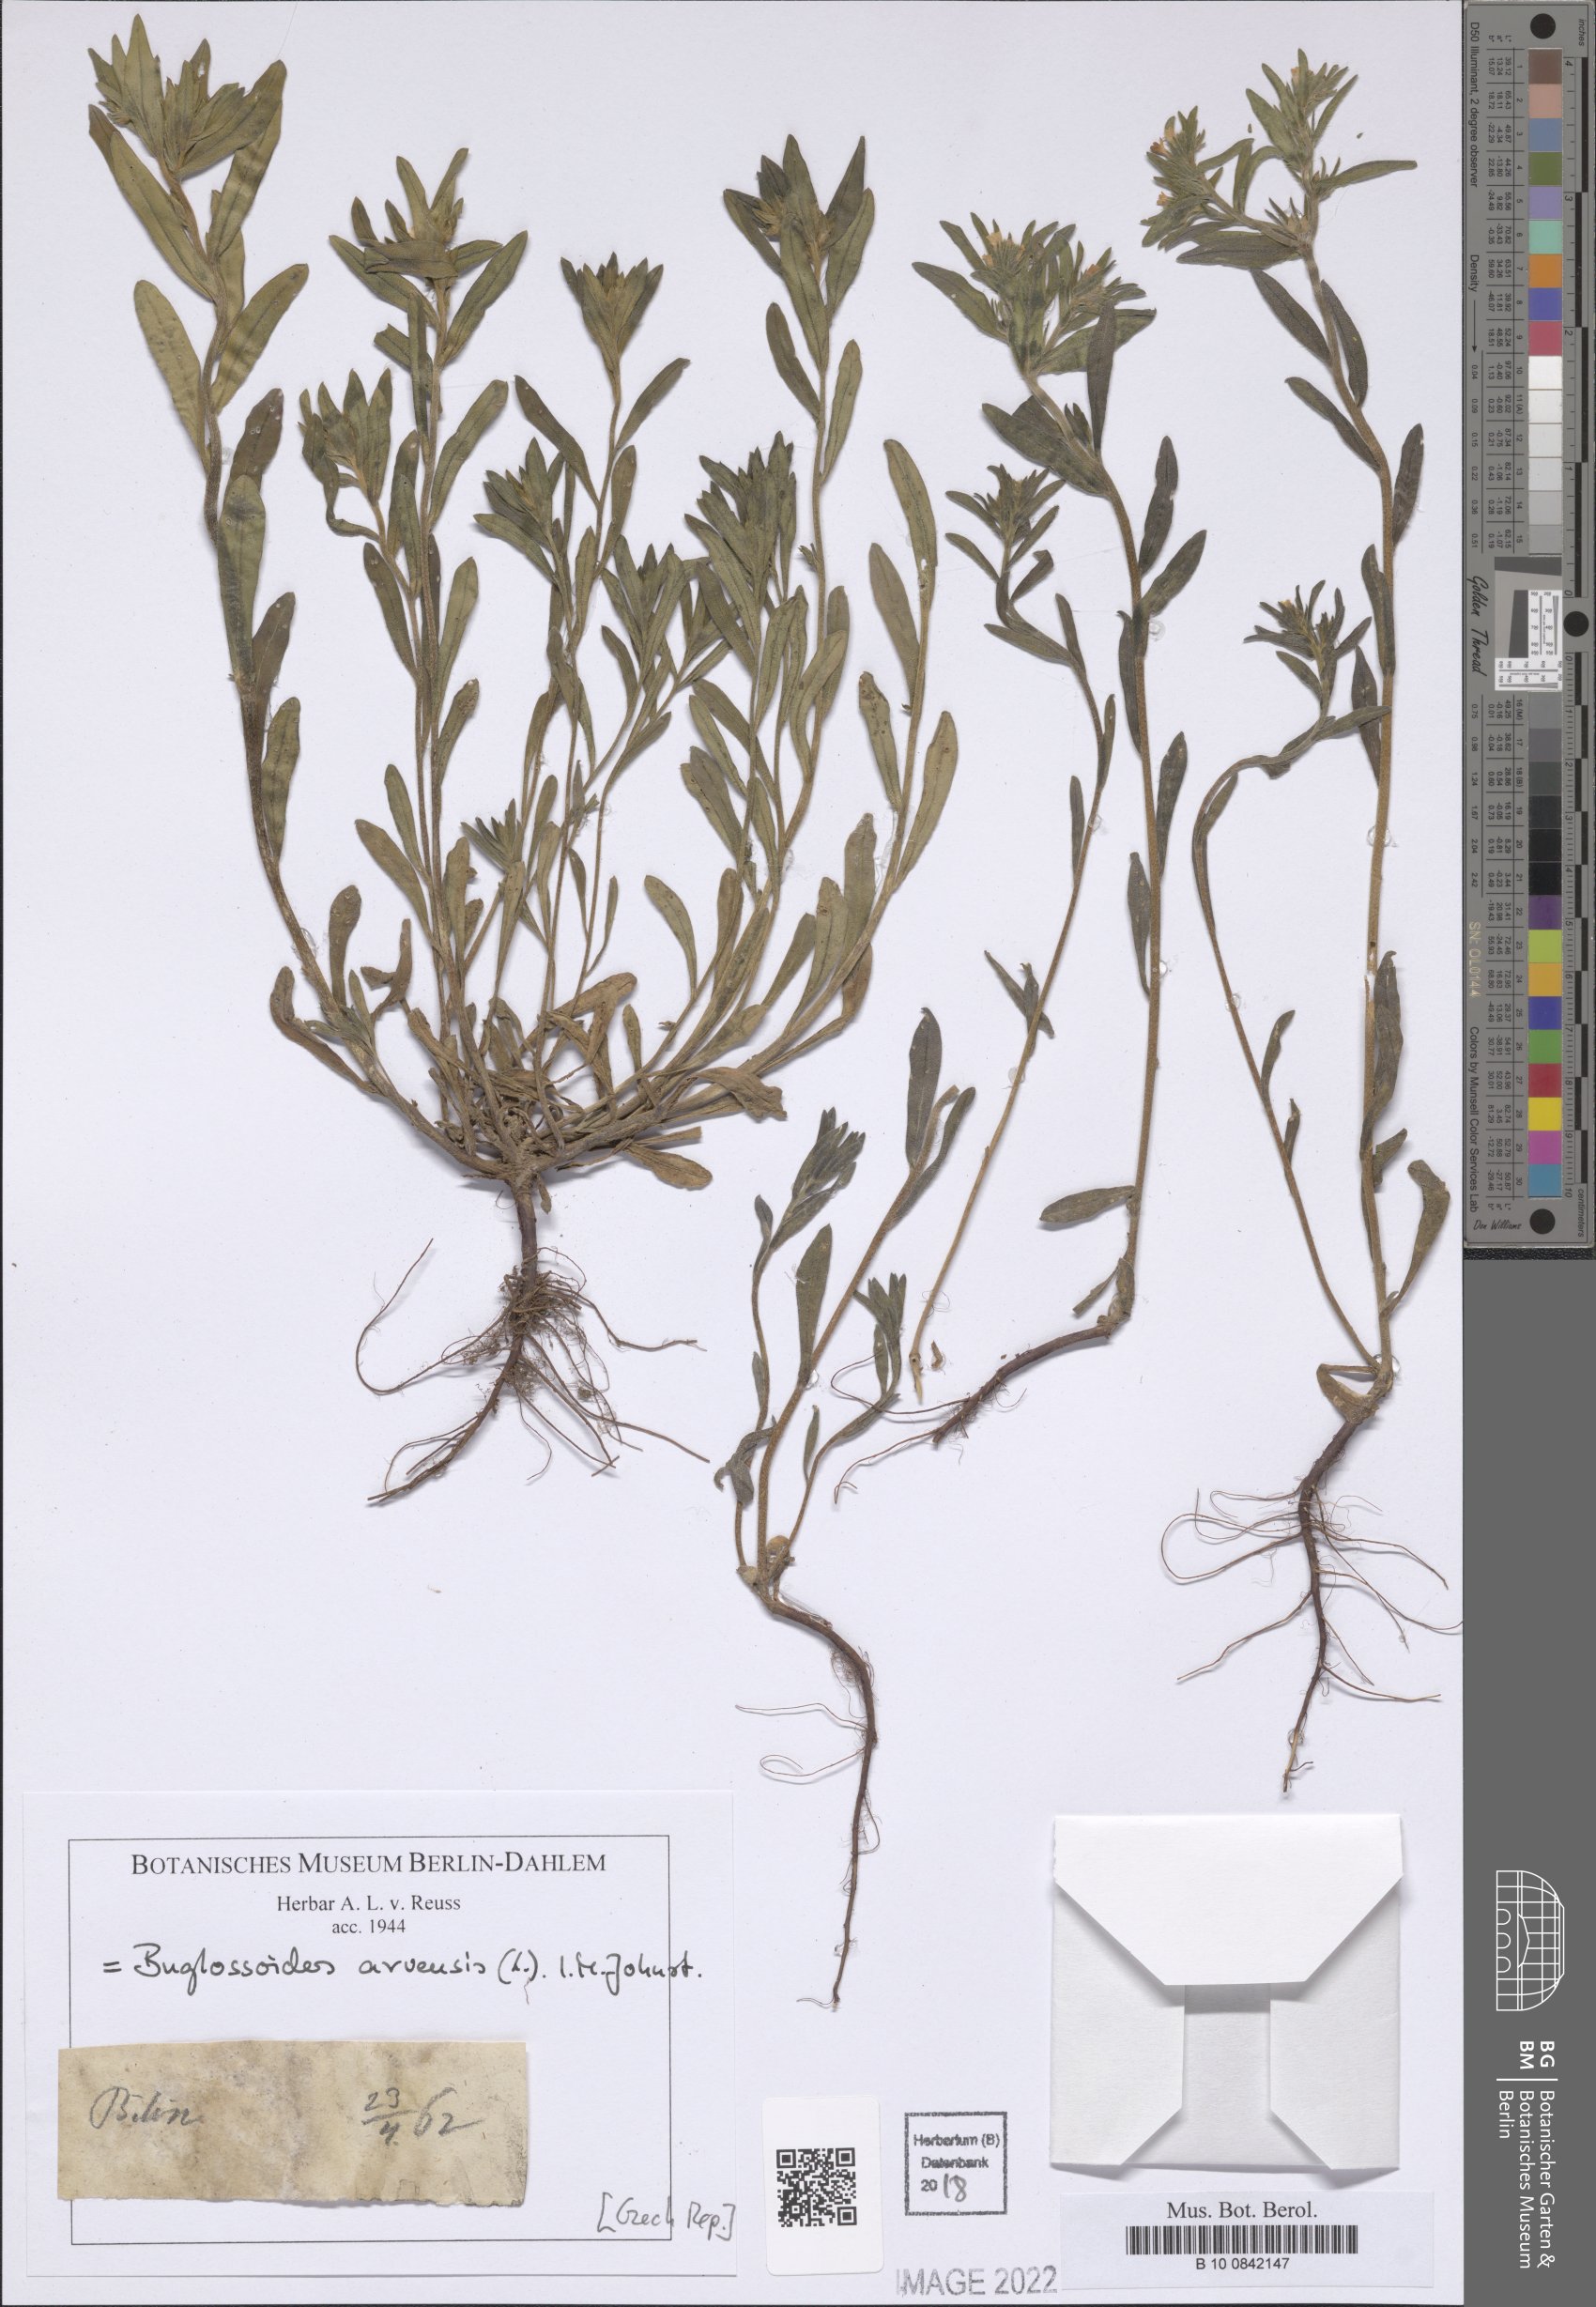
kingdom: Plantae
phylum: Tracheophyta
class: Magnoliopsida
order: Boraginales
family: Boraginaceae
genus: Buglossoides
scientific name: Buglossoides arvensis
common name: Corn gromwell
